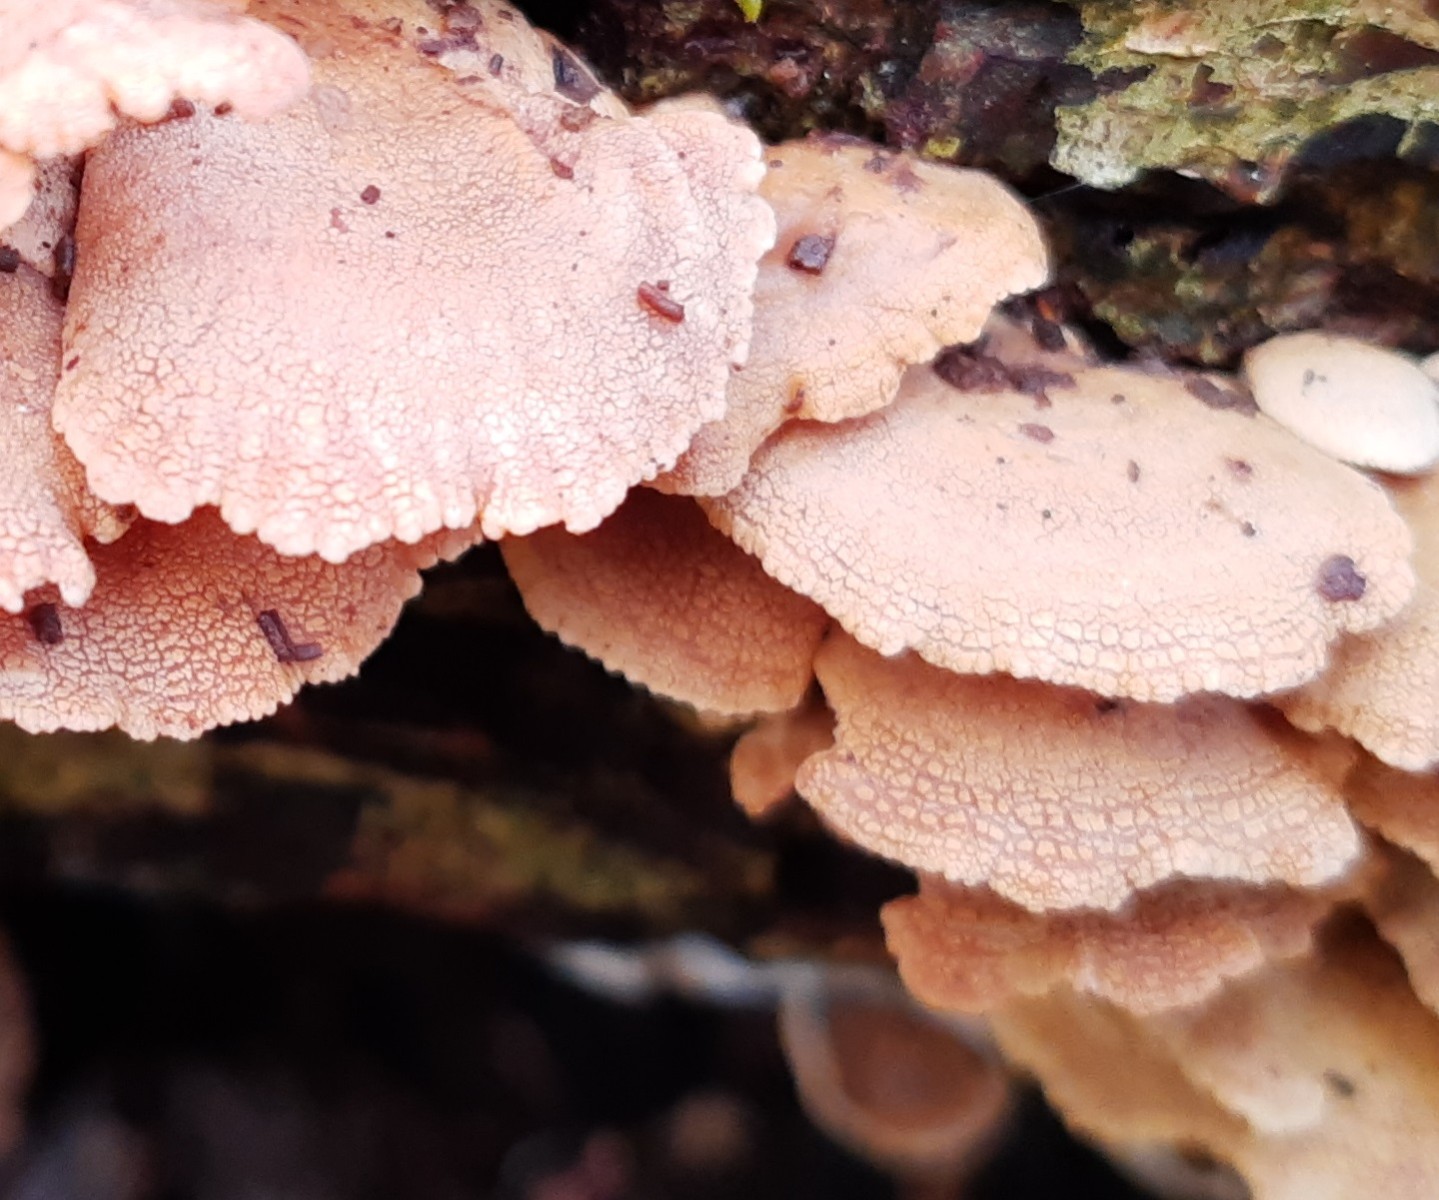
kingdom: Fungi
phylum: Basidiomycota
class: Agaricomycetes
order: Agaricales
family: Mycenaceae
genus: Panellus
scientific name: Panellus stipticus
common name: kliddet epaulethat
